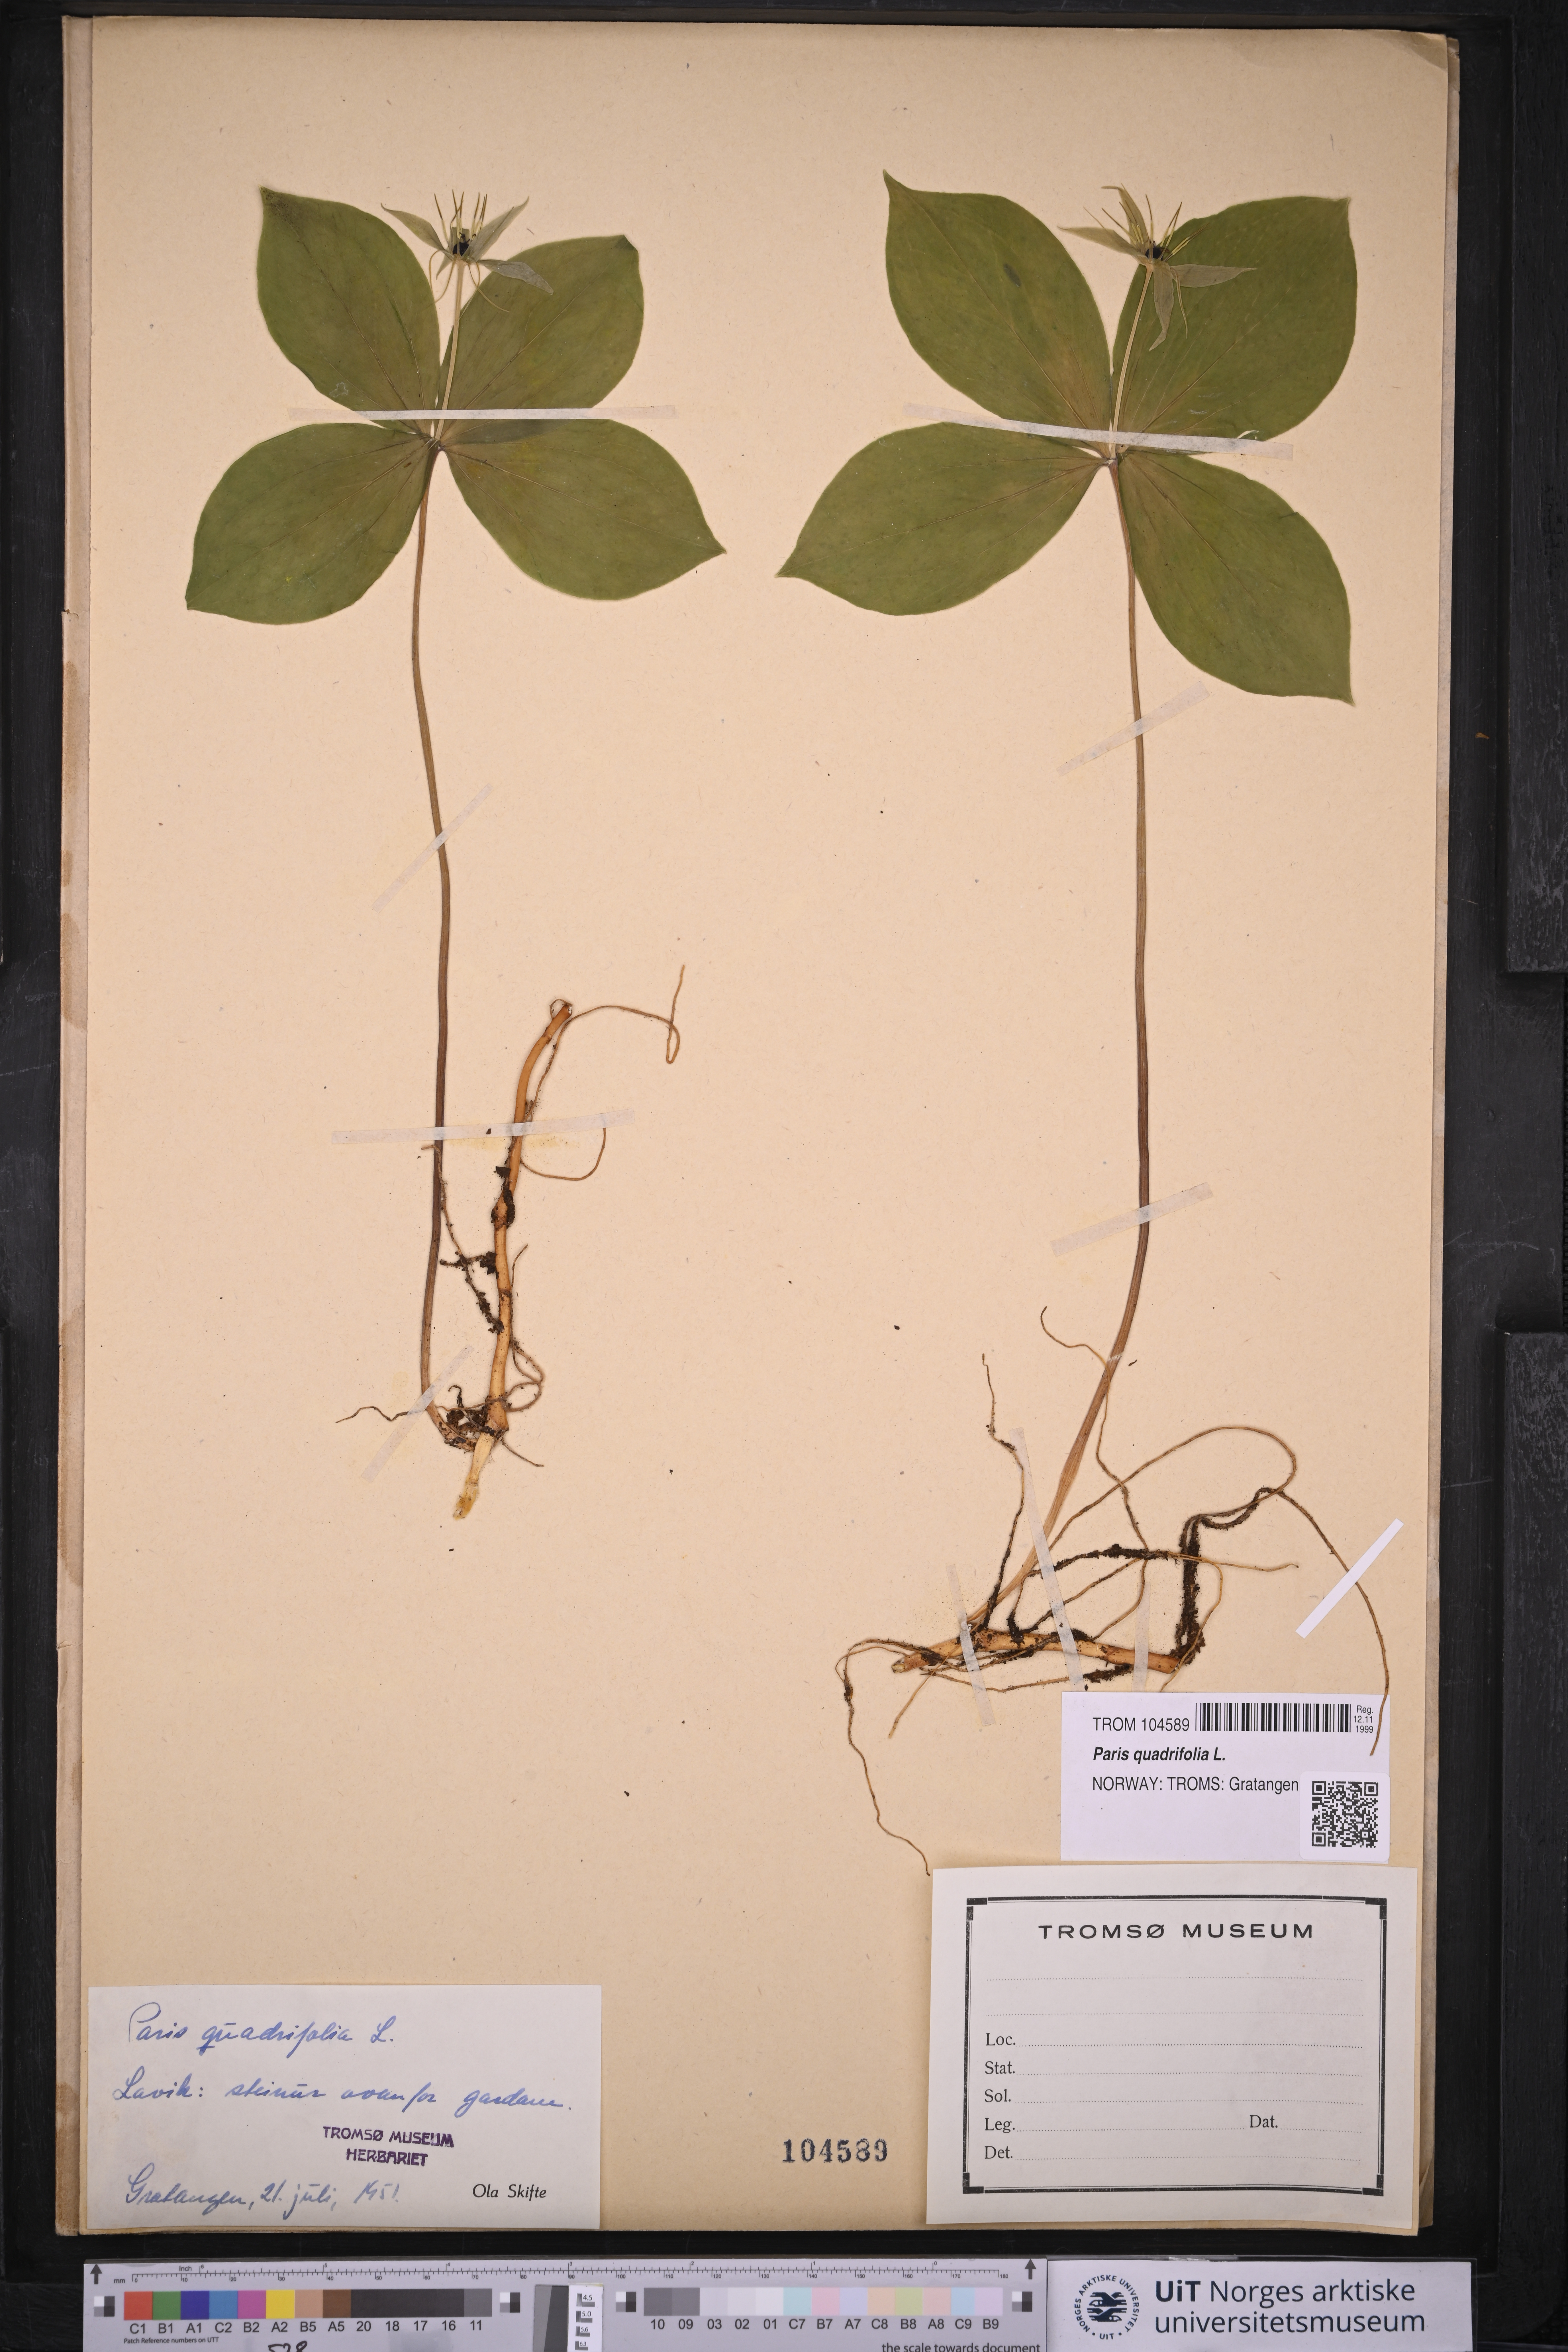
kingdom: Plantae
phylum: Tracheophyta
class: Liliopsida
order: Liliales
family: Melanthiaceae
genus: Paris
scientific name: Paris quadrifolia
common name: Herb-paris
